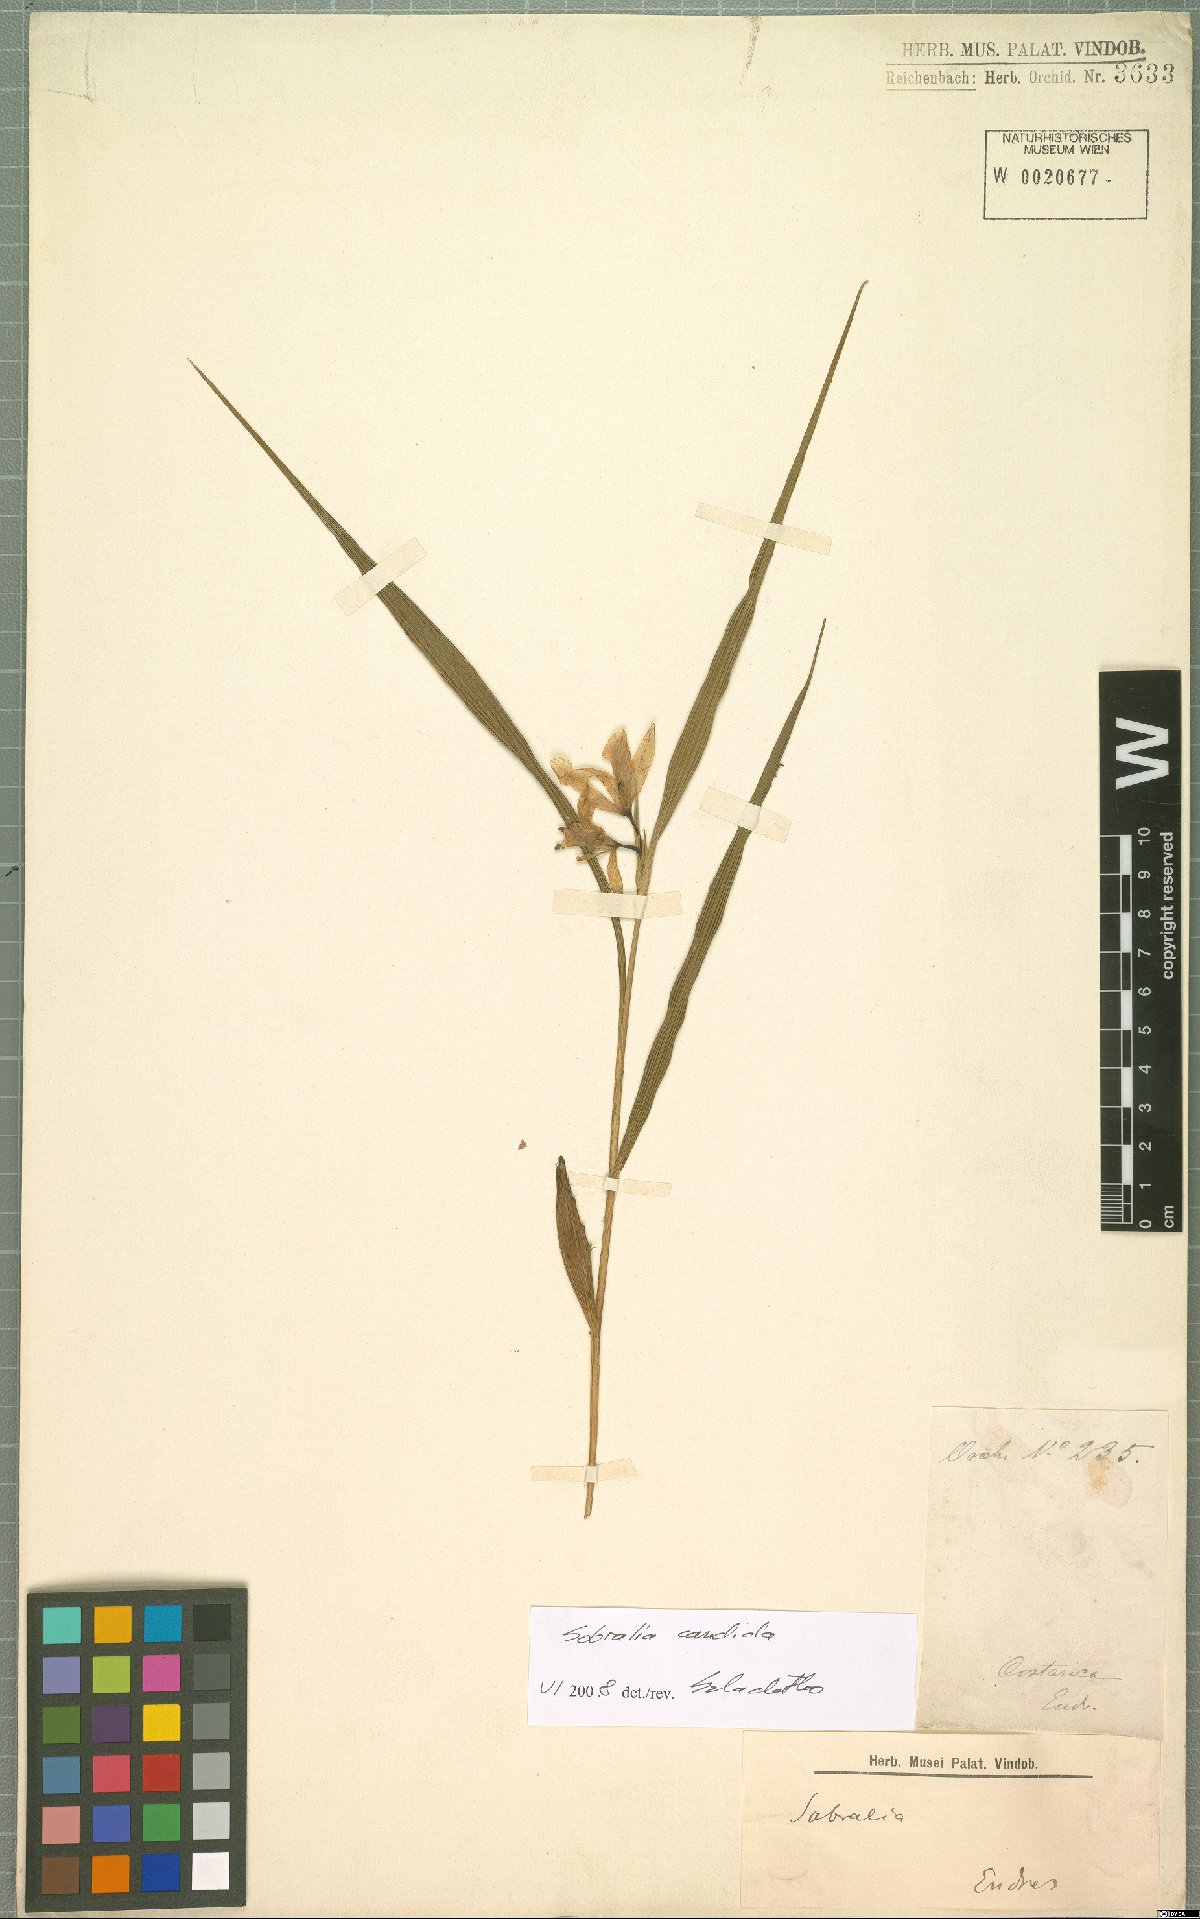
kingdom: Plantae
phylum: Tracheophyta
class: Liliopsida
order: Asparagales
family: Orchidaceae
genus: Sobralia
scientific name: Sobralia candida
